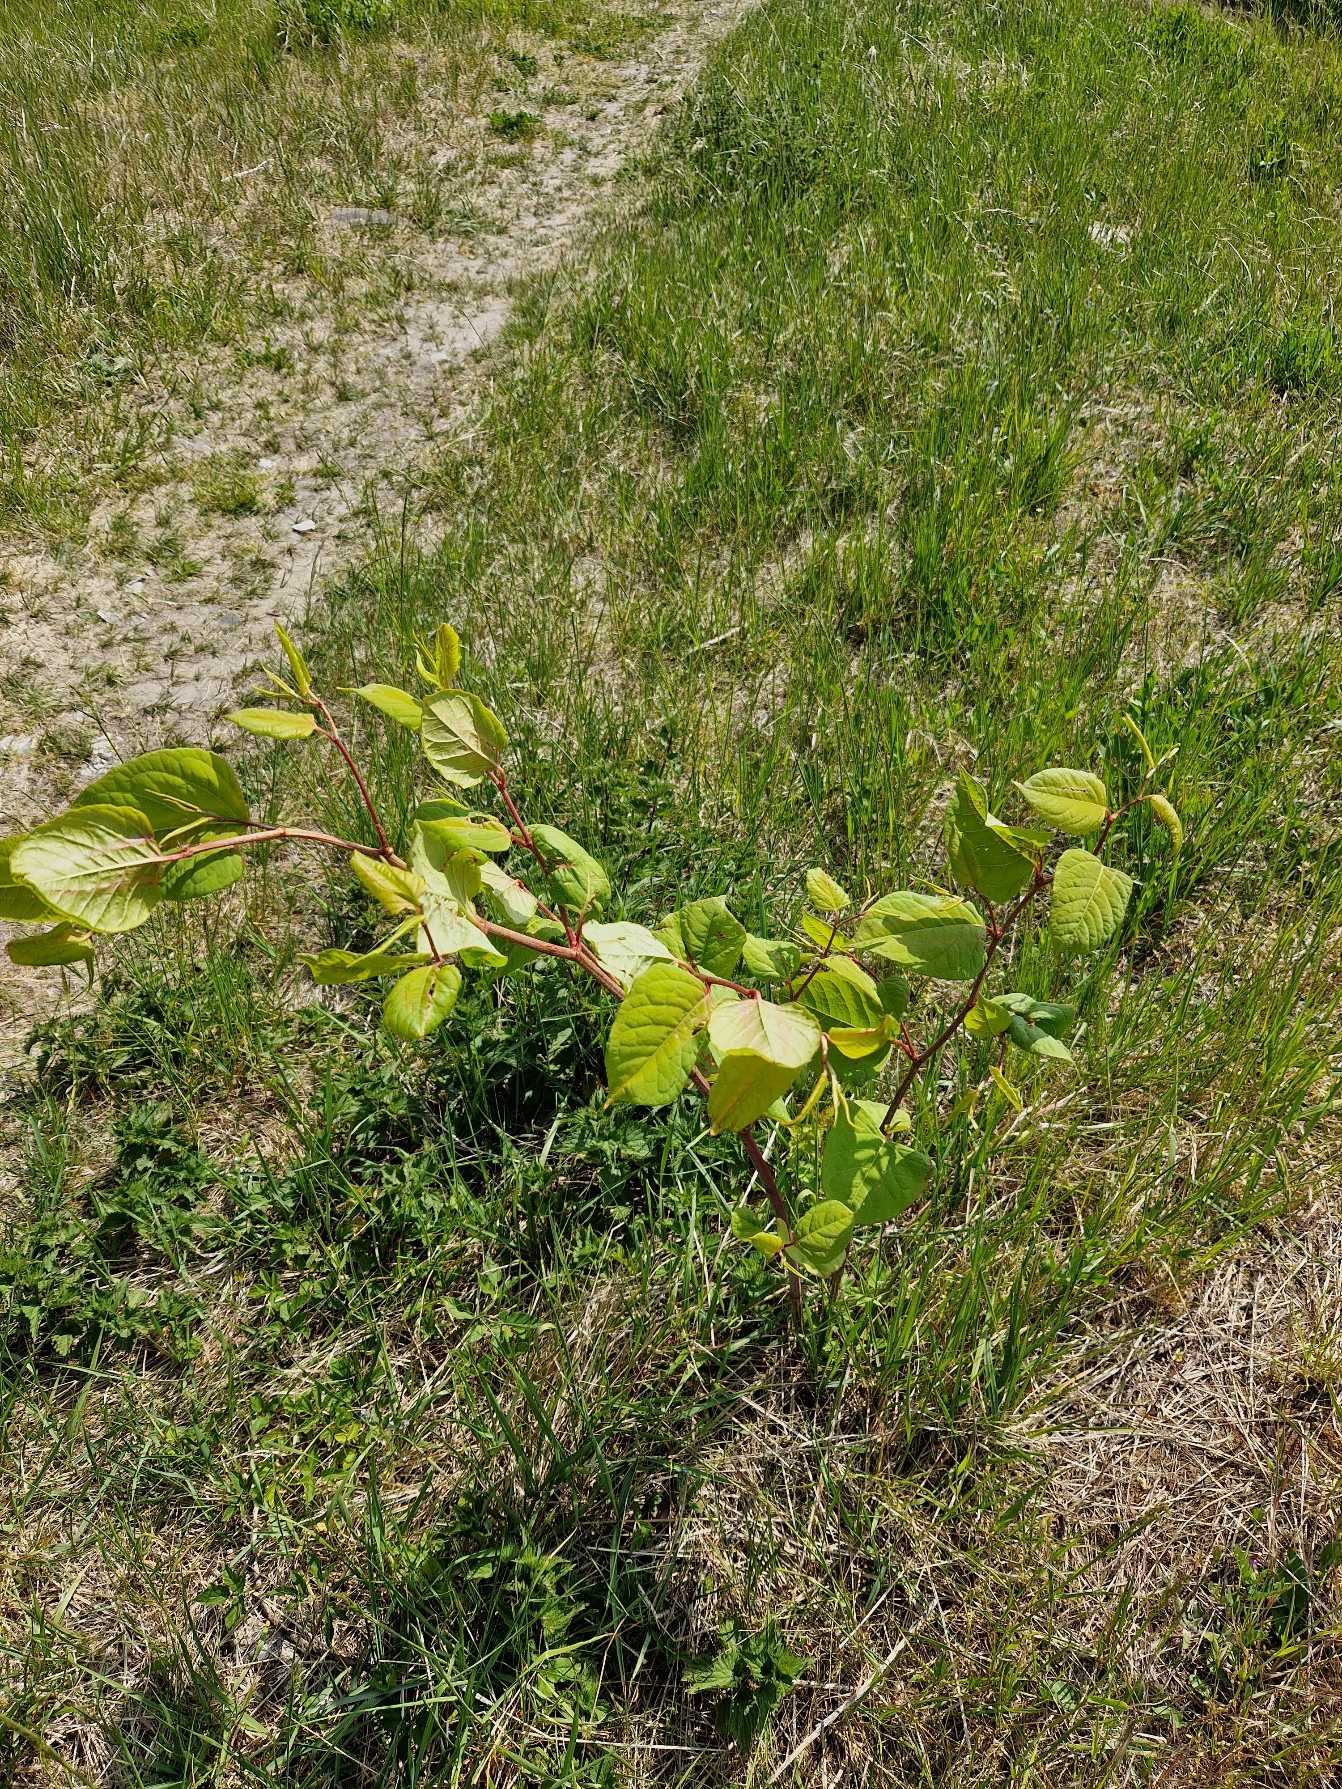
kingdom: Plantae
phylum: Tracheophyta
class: Magnoliopsida
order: Caryophyllales
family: Polygonaceae
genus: Reynoutria
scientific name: Reynoutria japonica
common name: Japan-pileurt
